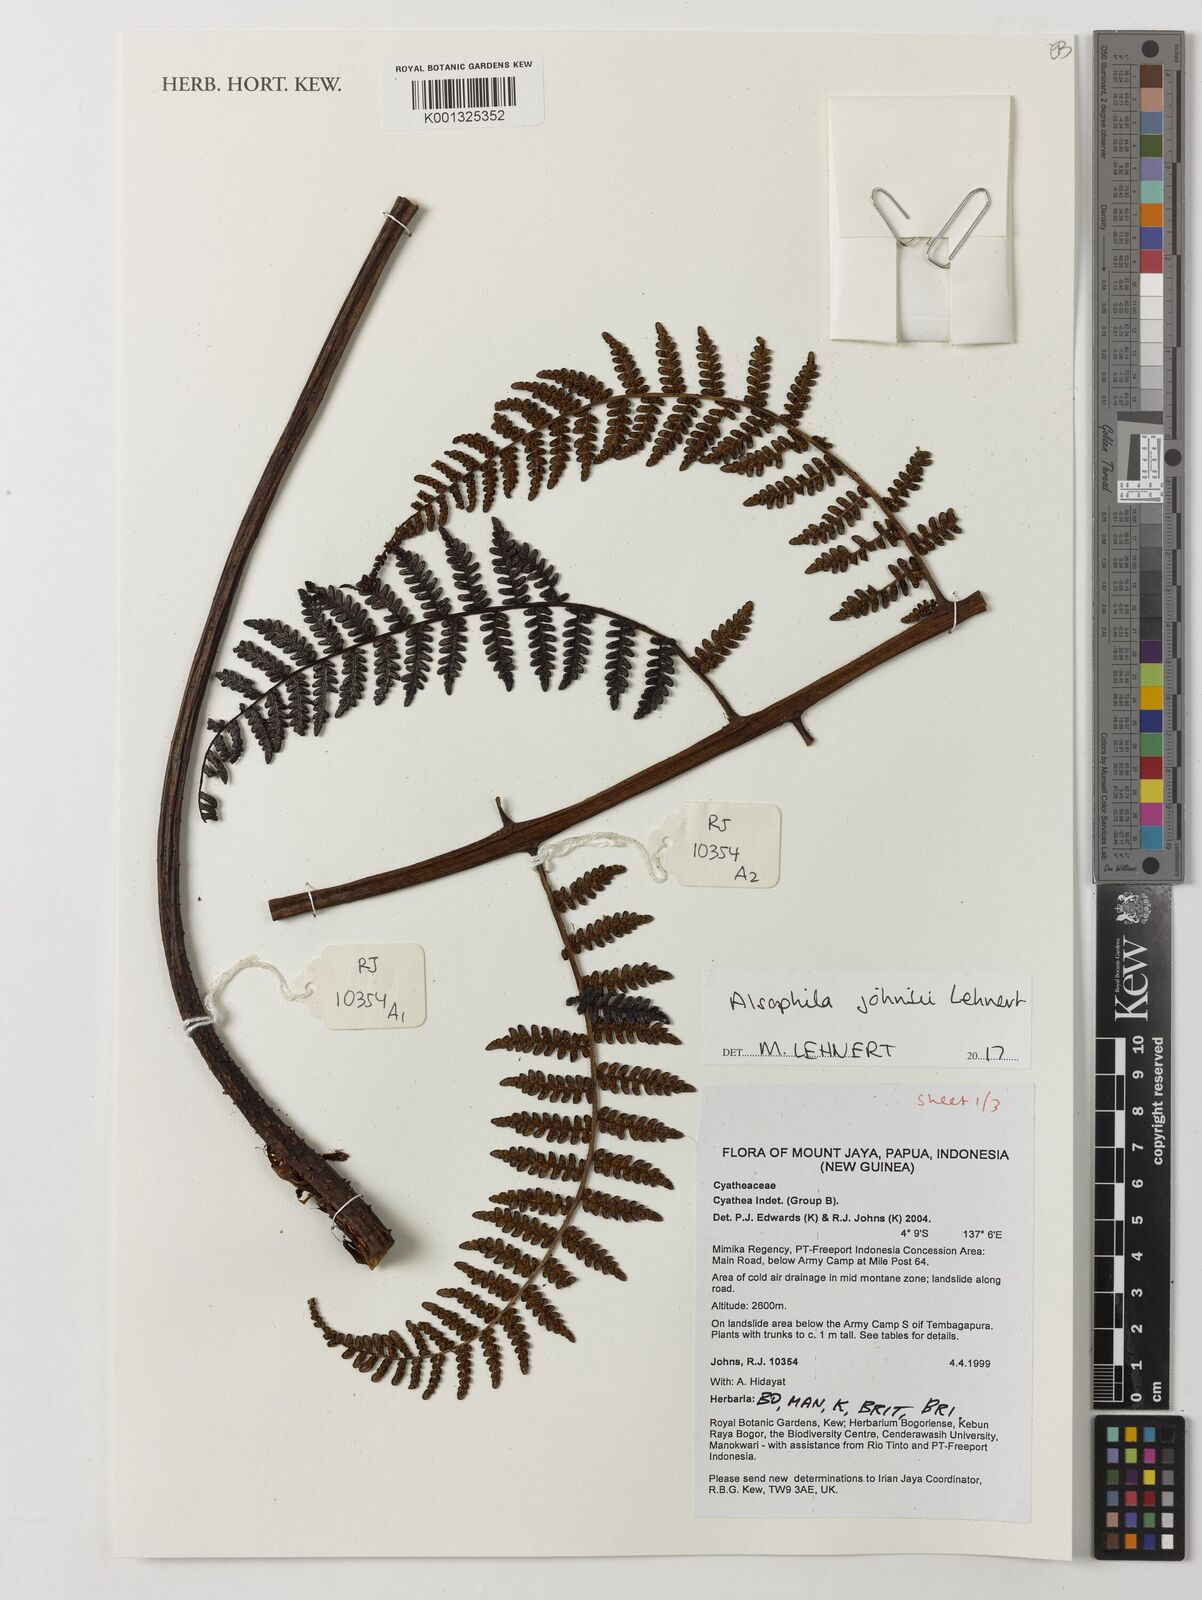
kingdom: Plantae
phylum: Tracheophyta
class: Polypodiopsida
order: Cyatheales
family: Cyatheaceae
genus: Alsophila
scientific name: Alsophila johnsii
